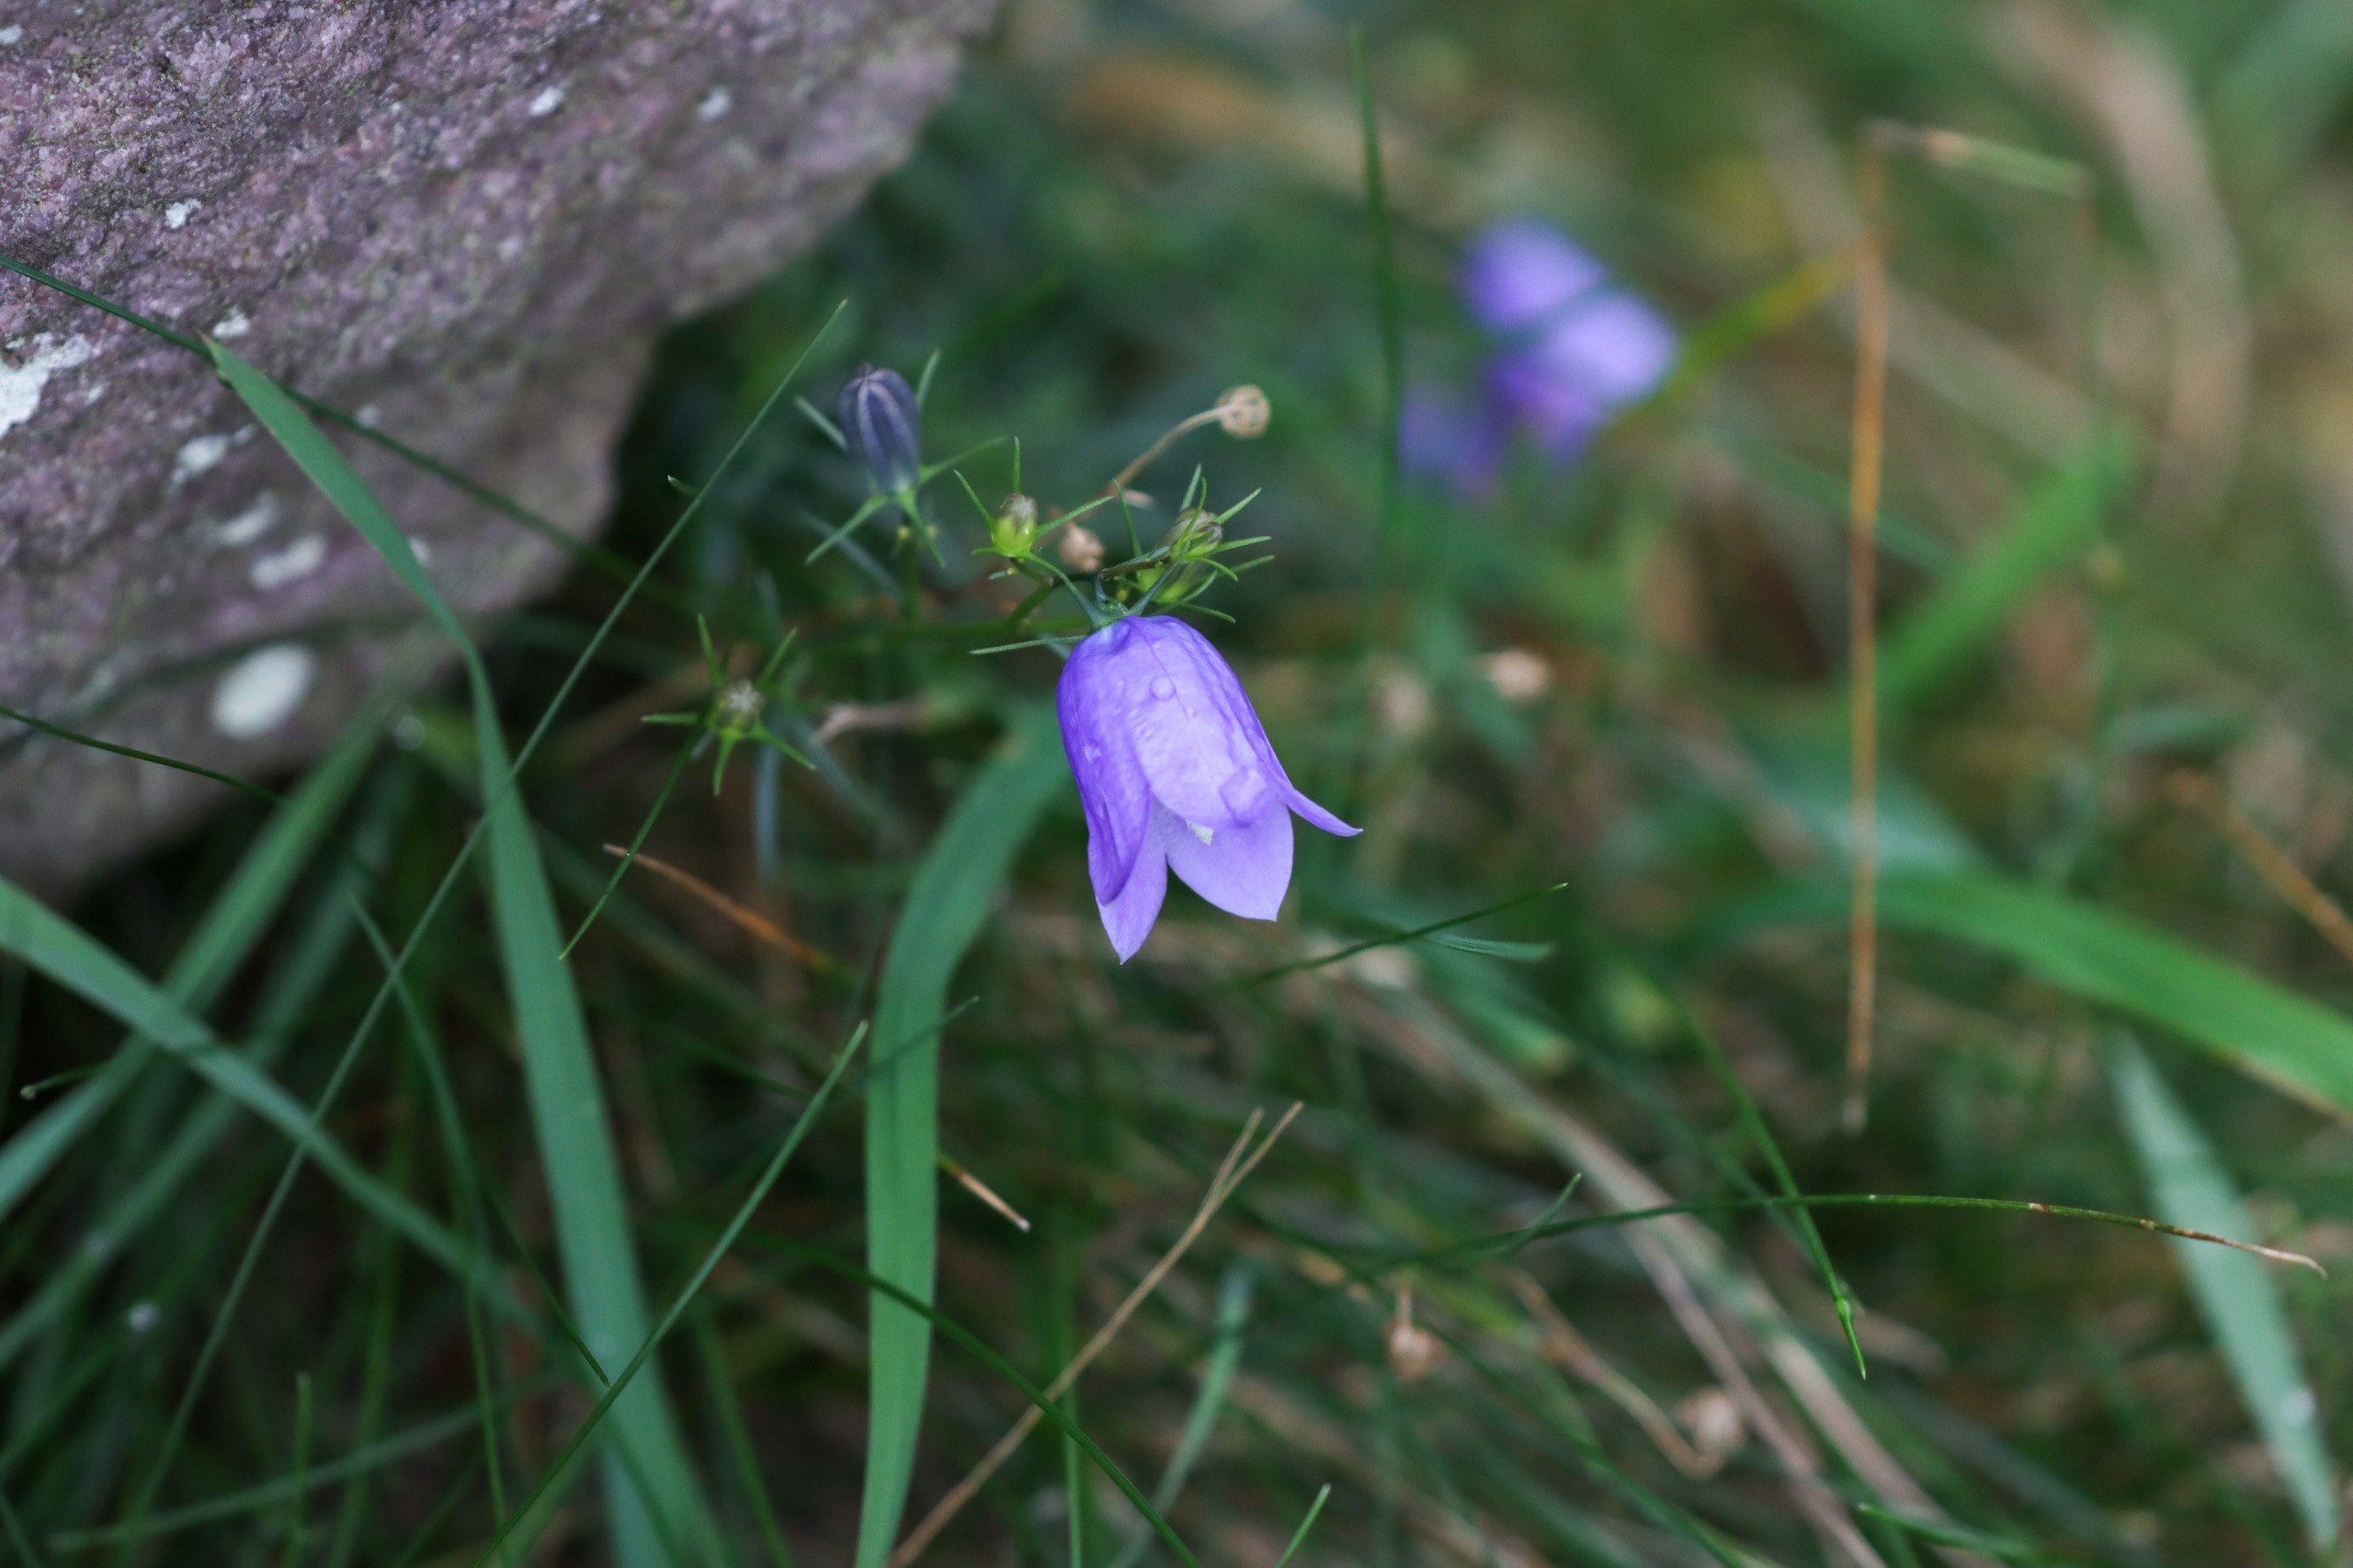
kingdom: Plantae
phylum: Tracheophyta
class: Magnoliopsida
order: Asterales
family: Campanulaceae
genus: Campanula
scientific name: Campanula rotundifolia
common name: Liden klokke
